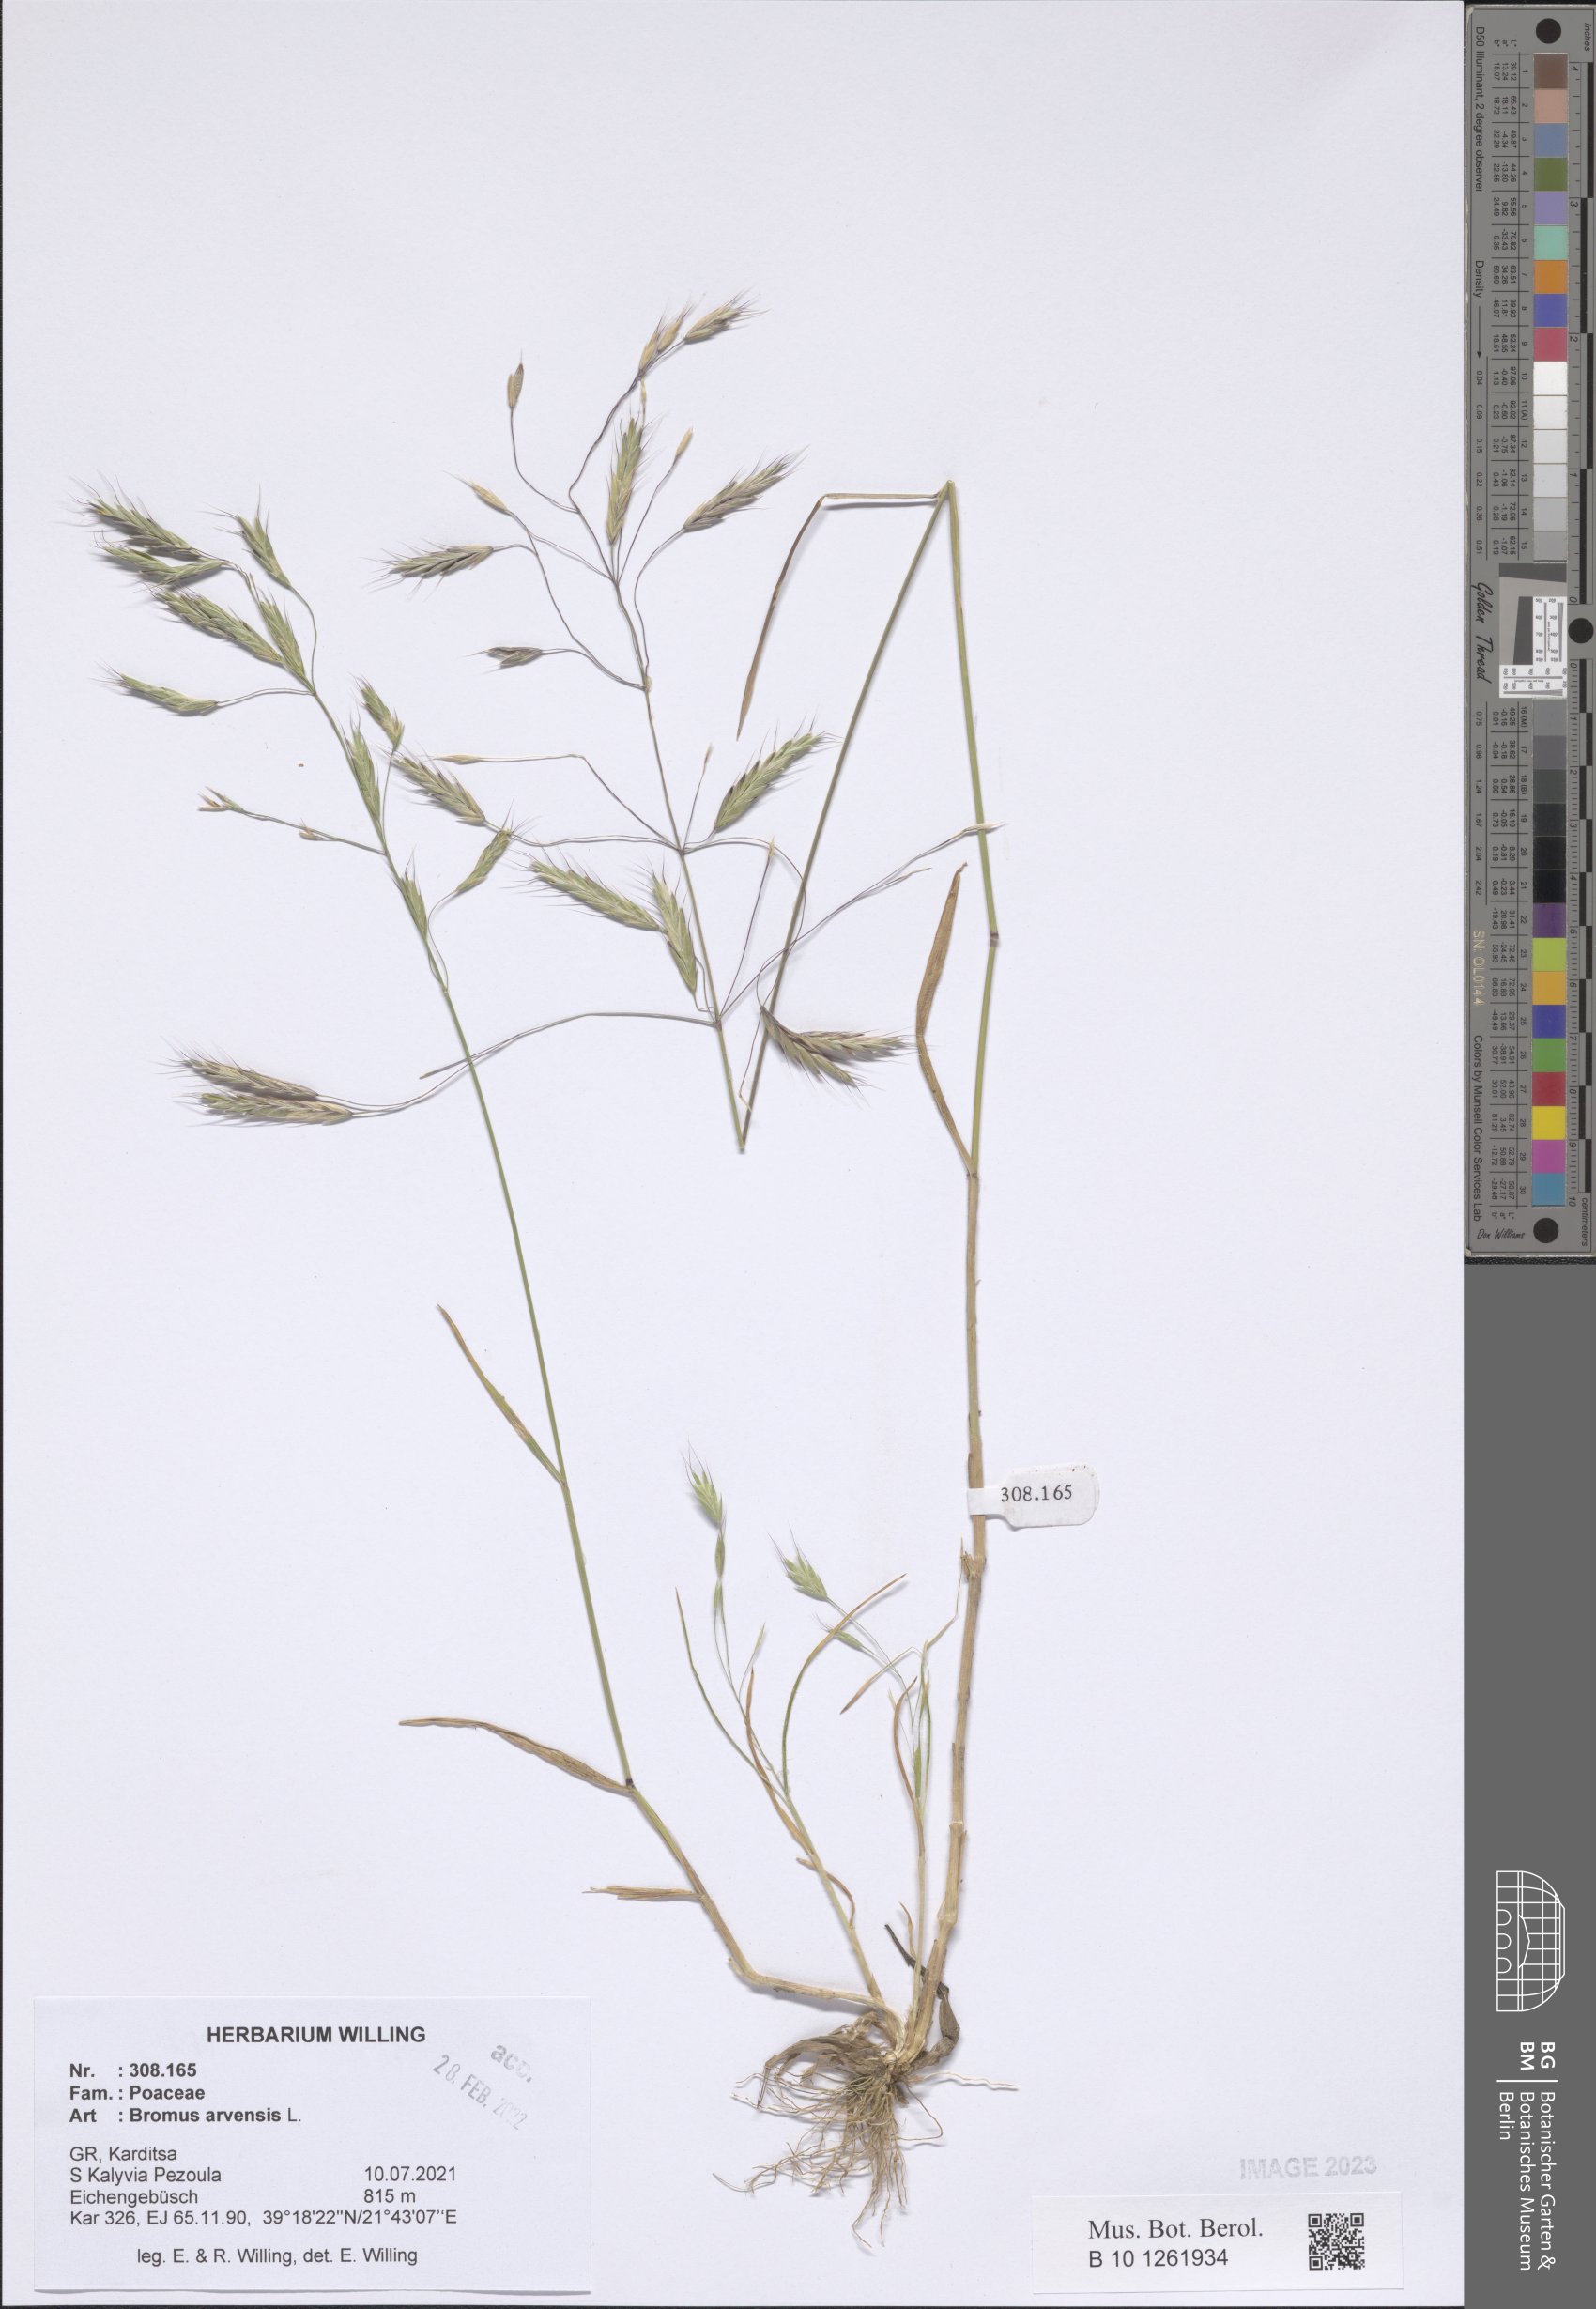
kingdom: Plantae
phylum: Tracheophyta
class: Liliopsida
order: Poales
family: Poaceae
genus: Bromus
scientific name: Bromus arvensis
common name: Field brome
